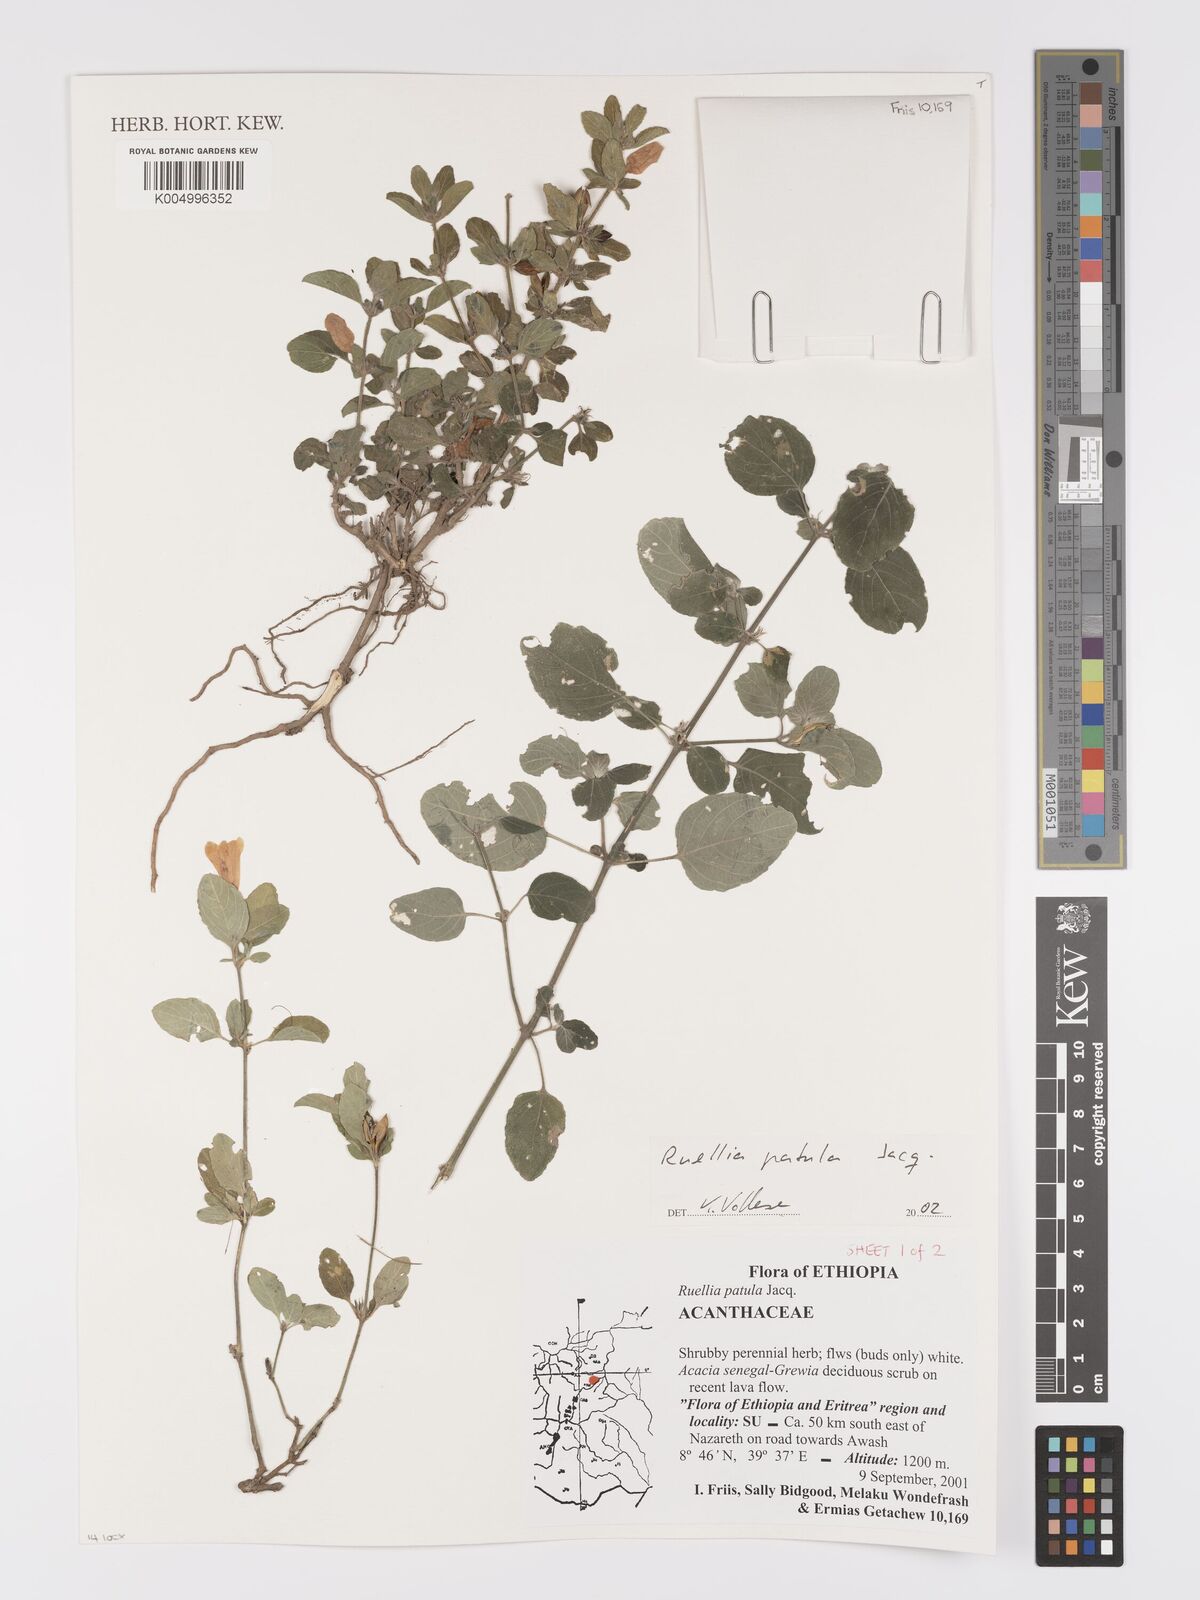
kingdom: Plantae
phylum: Tracheophyta
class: Magnoliopsida
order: Lamiales
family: Acanthaceae
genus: Ruellia
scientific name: Ruellia patula
